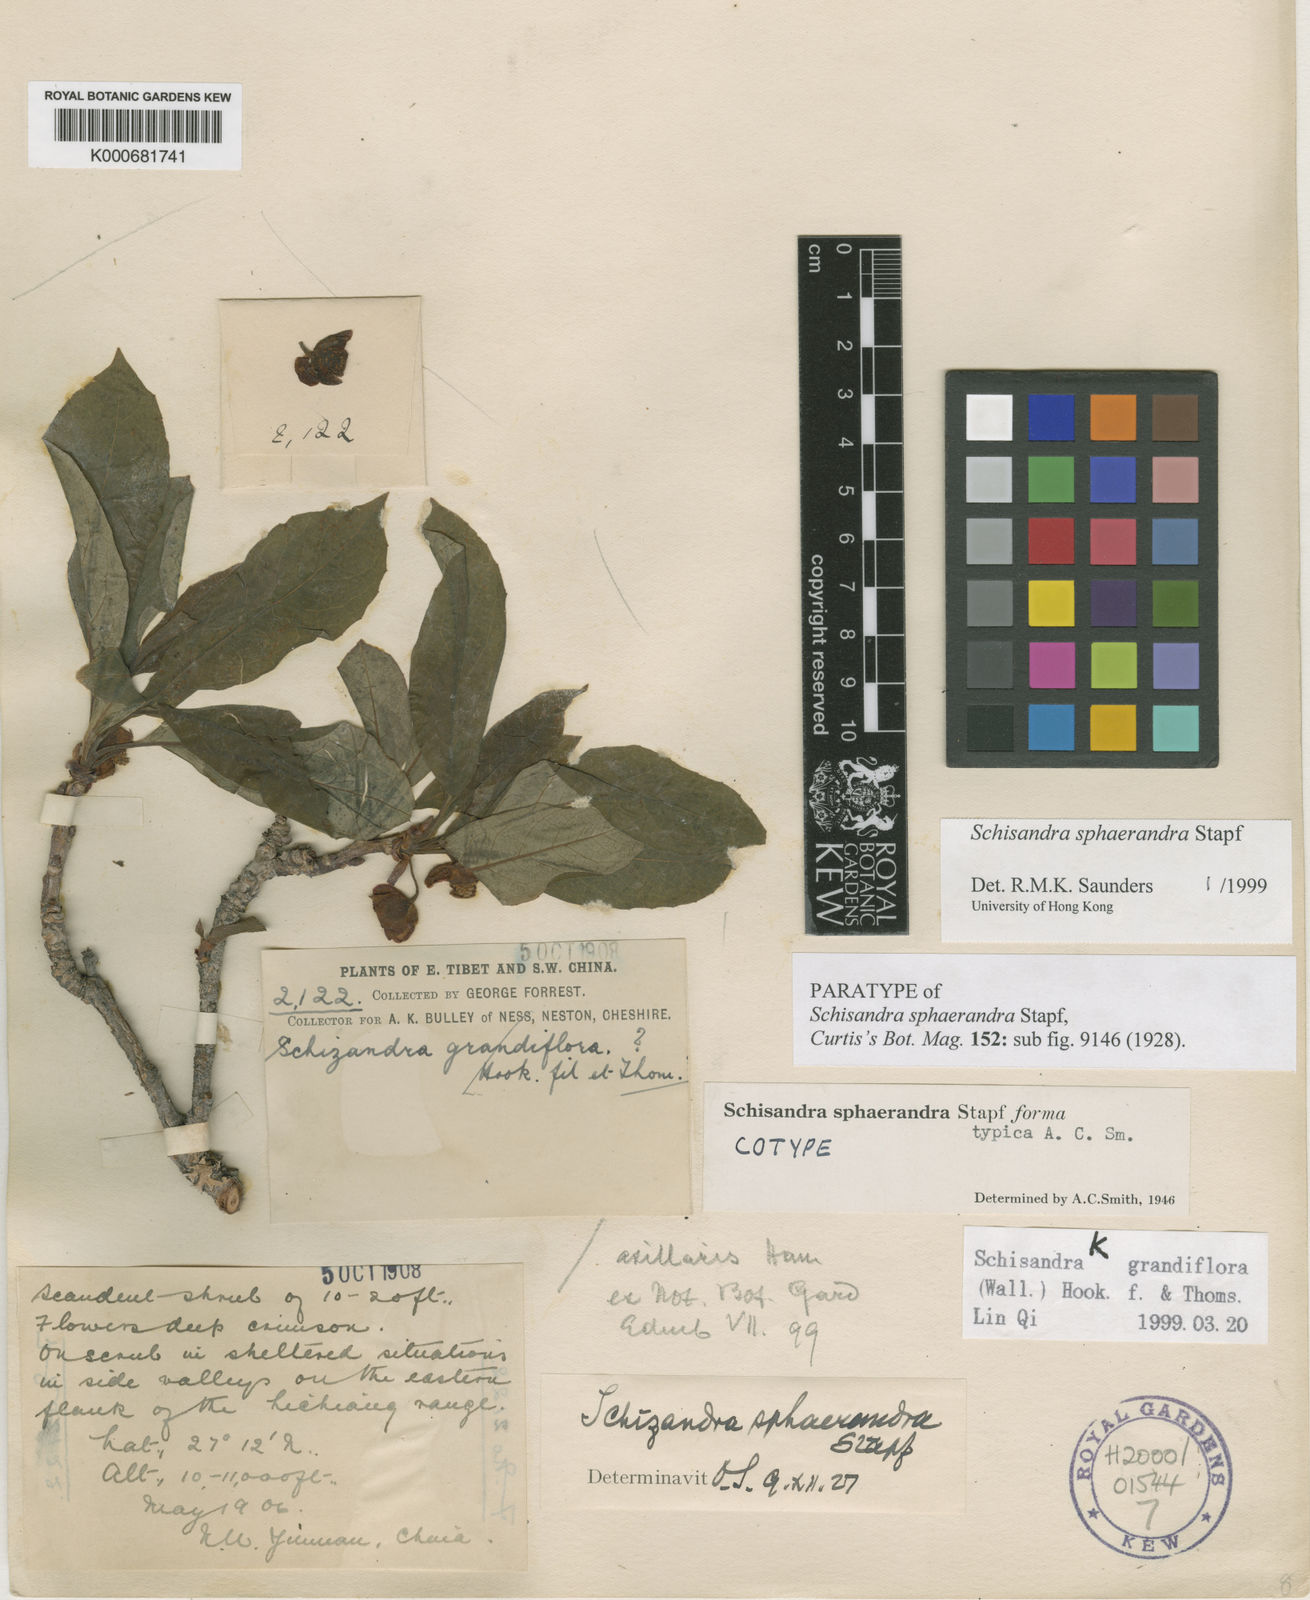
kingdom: Plantae
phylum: Tracheophyta
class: Magnoliopsida
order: Austrobaileyales
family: Schisandraceae
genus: Schisandra
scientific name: Schisandra sphaerandra
